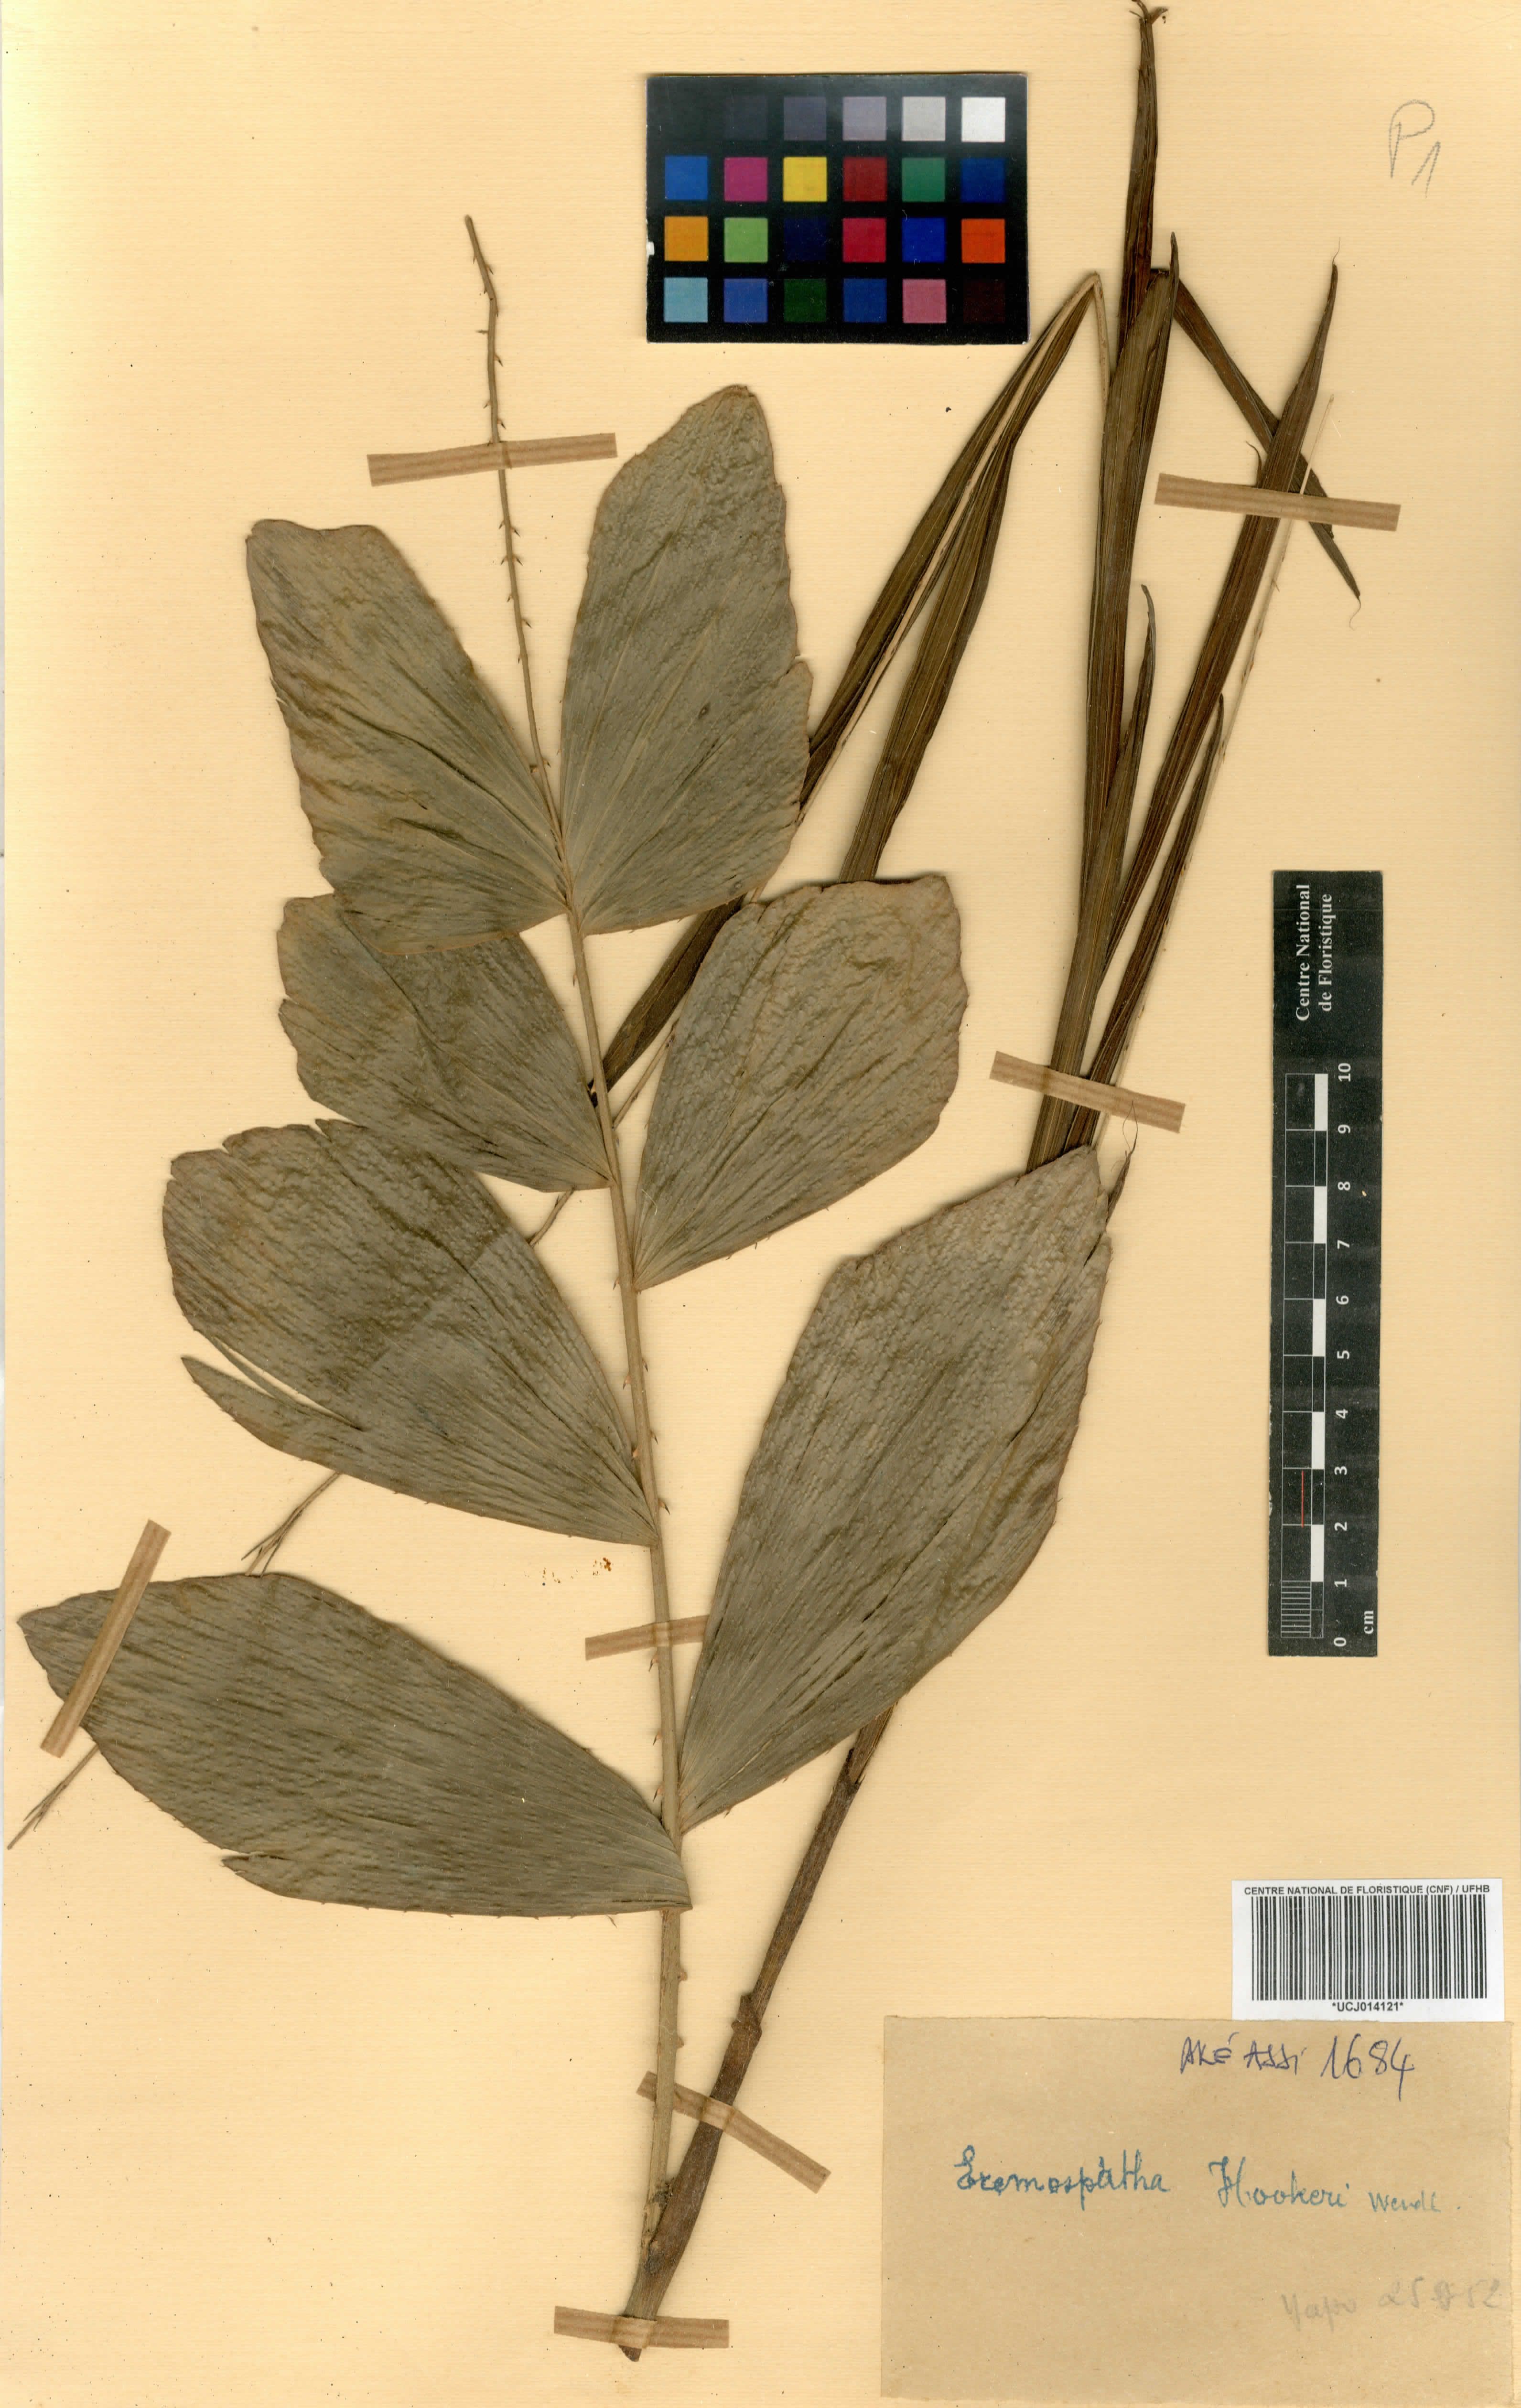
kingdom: Plantae
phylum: Tracheophyta
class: Liliopsida
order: Arecales
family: Arecaceae
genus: Eremospatha
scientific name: Eremospatha hookeri
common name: Rattan
